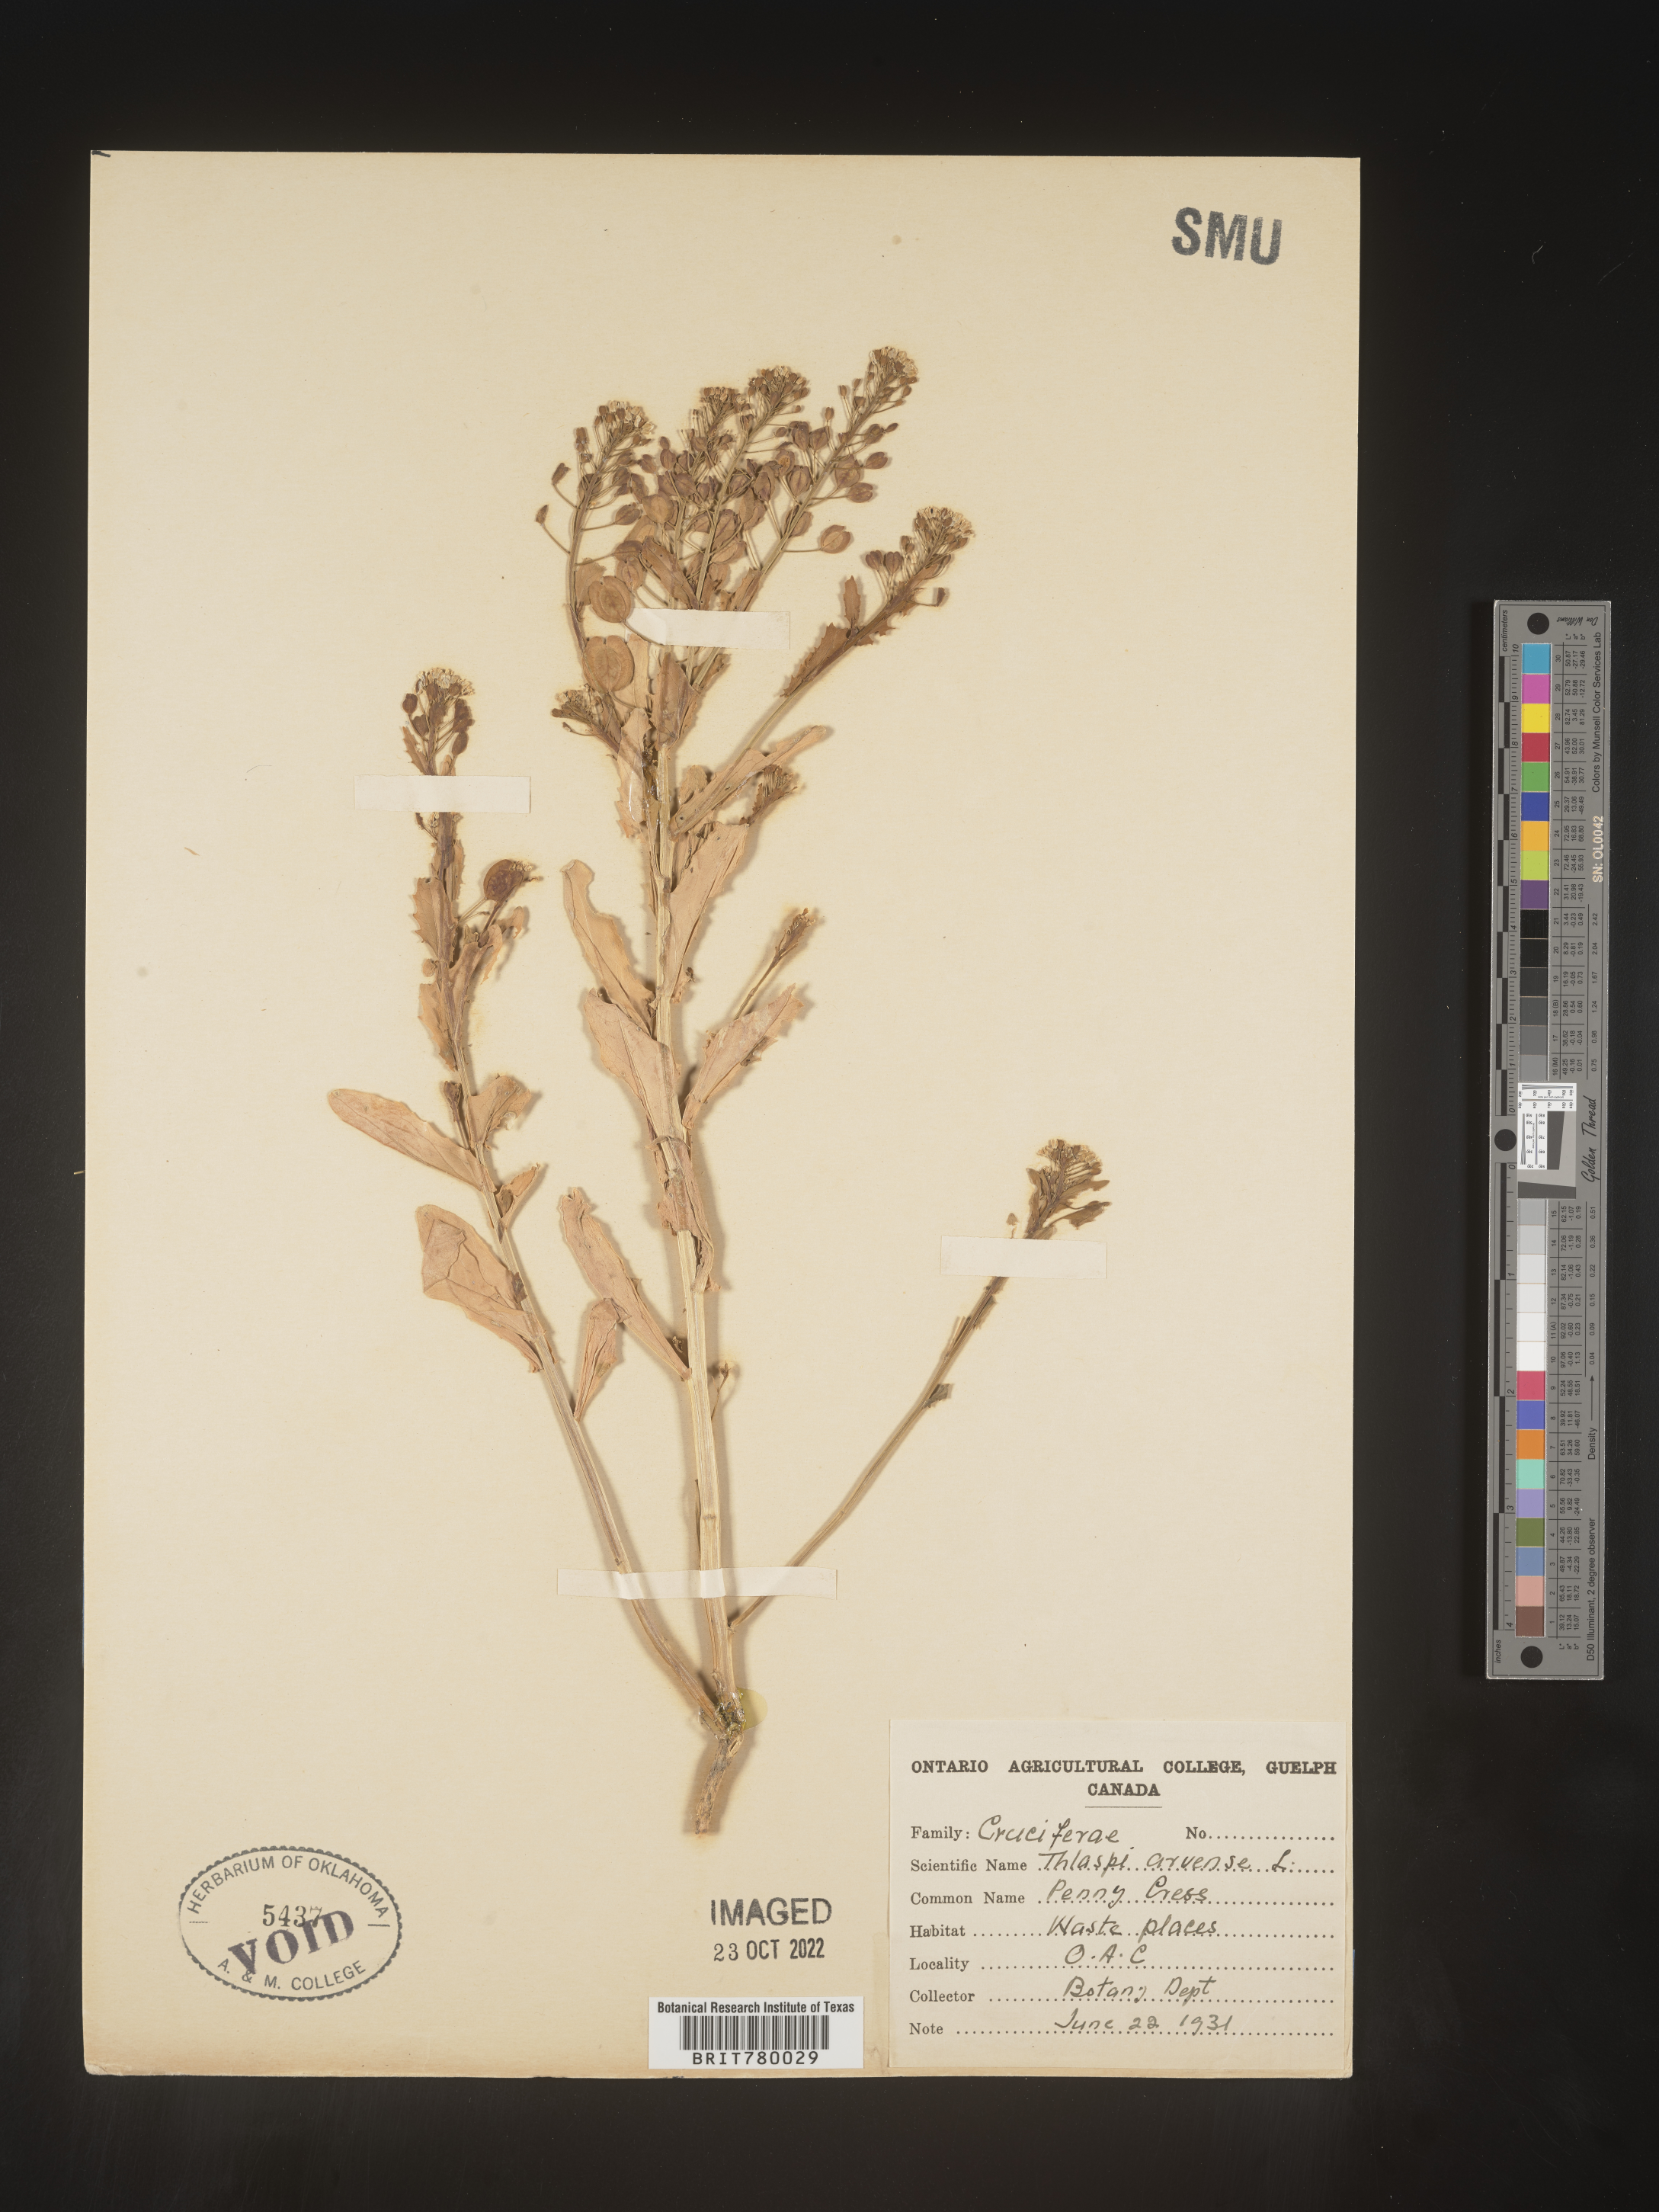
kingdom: Plantae
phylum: Tracheophyta
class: Magnoliopsida
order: Brassicales
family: Brassicaceae
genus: Thlaspi
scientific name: Thlaspi arvense
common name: Field pennycress
